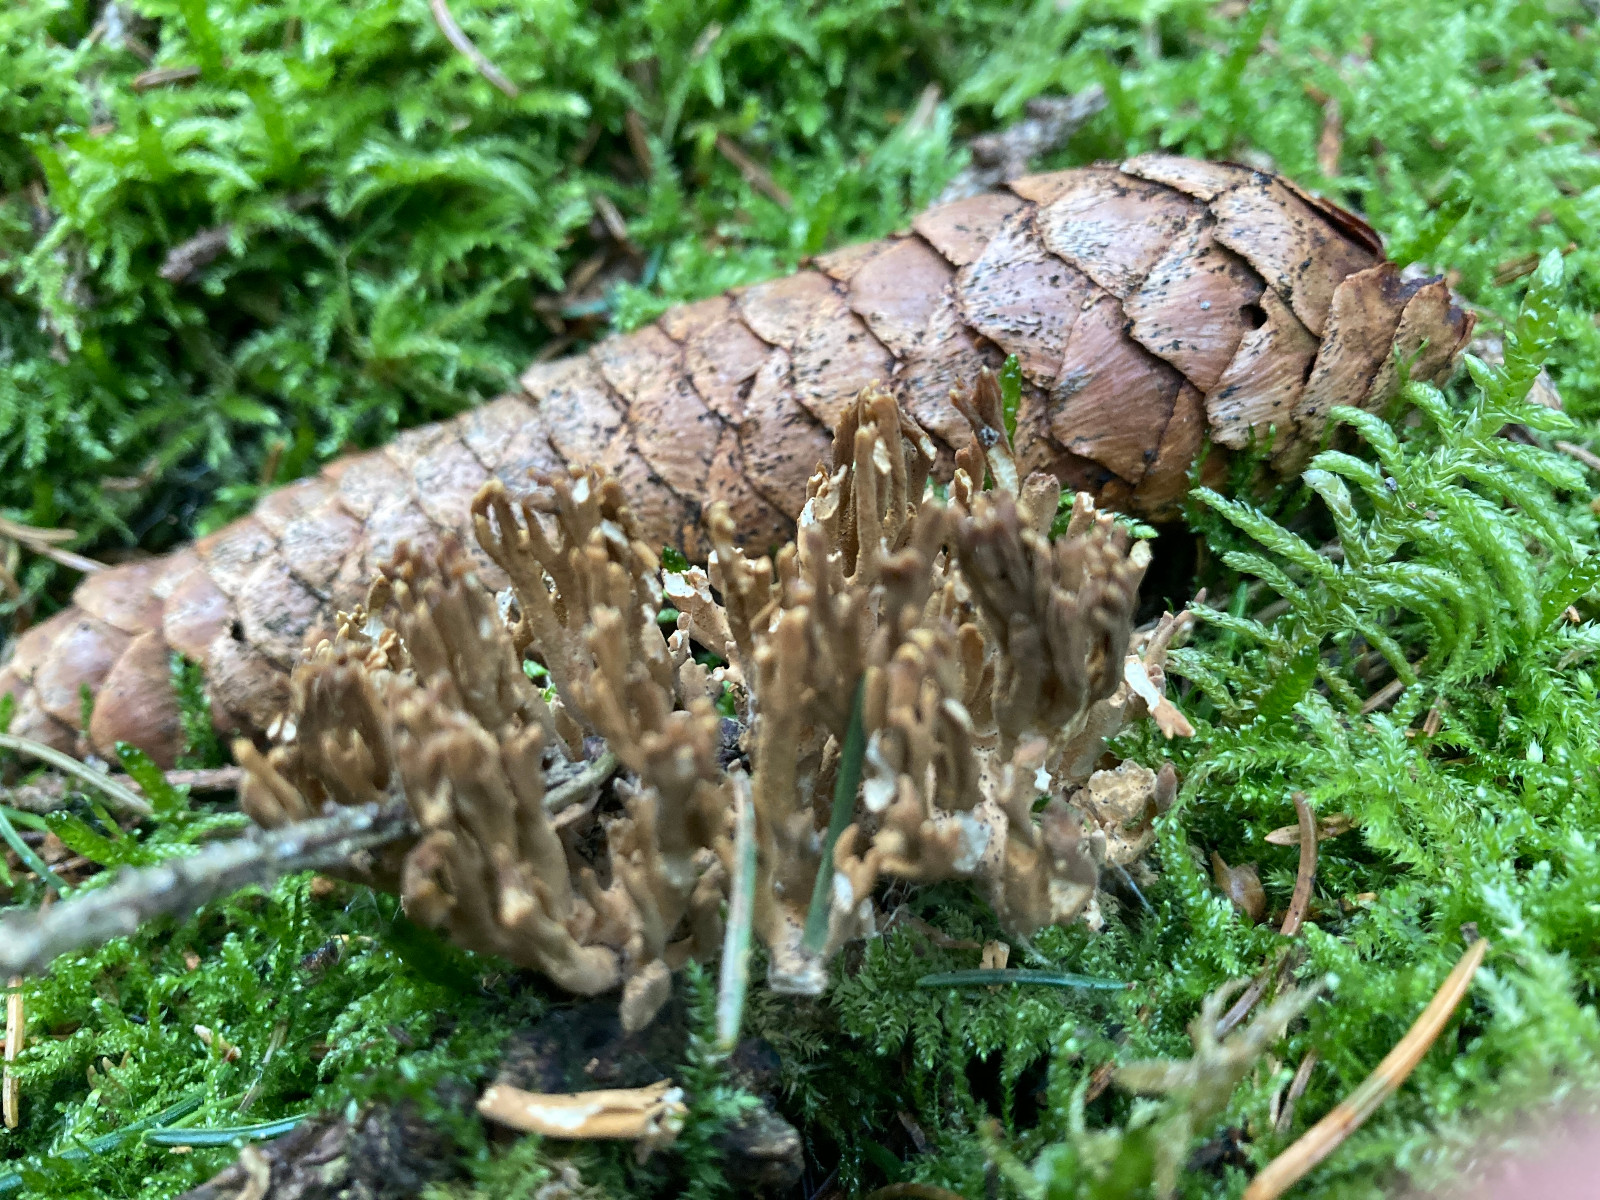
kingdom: Fungi
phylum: Basidiomycota
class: Agaricomycetes
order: Gomphales
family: Gomphaceae
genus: Phaeoclavulina
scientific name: Phaeoclavulina eumorpha
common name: gran-koralsvamp
